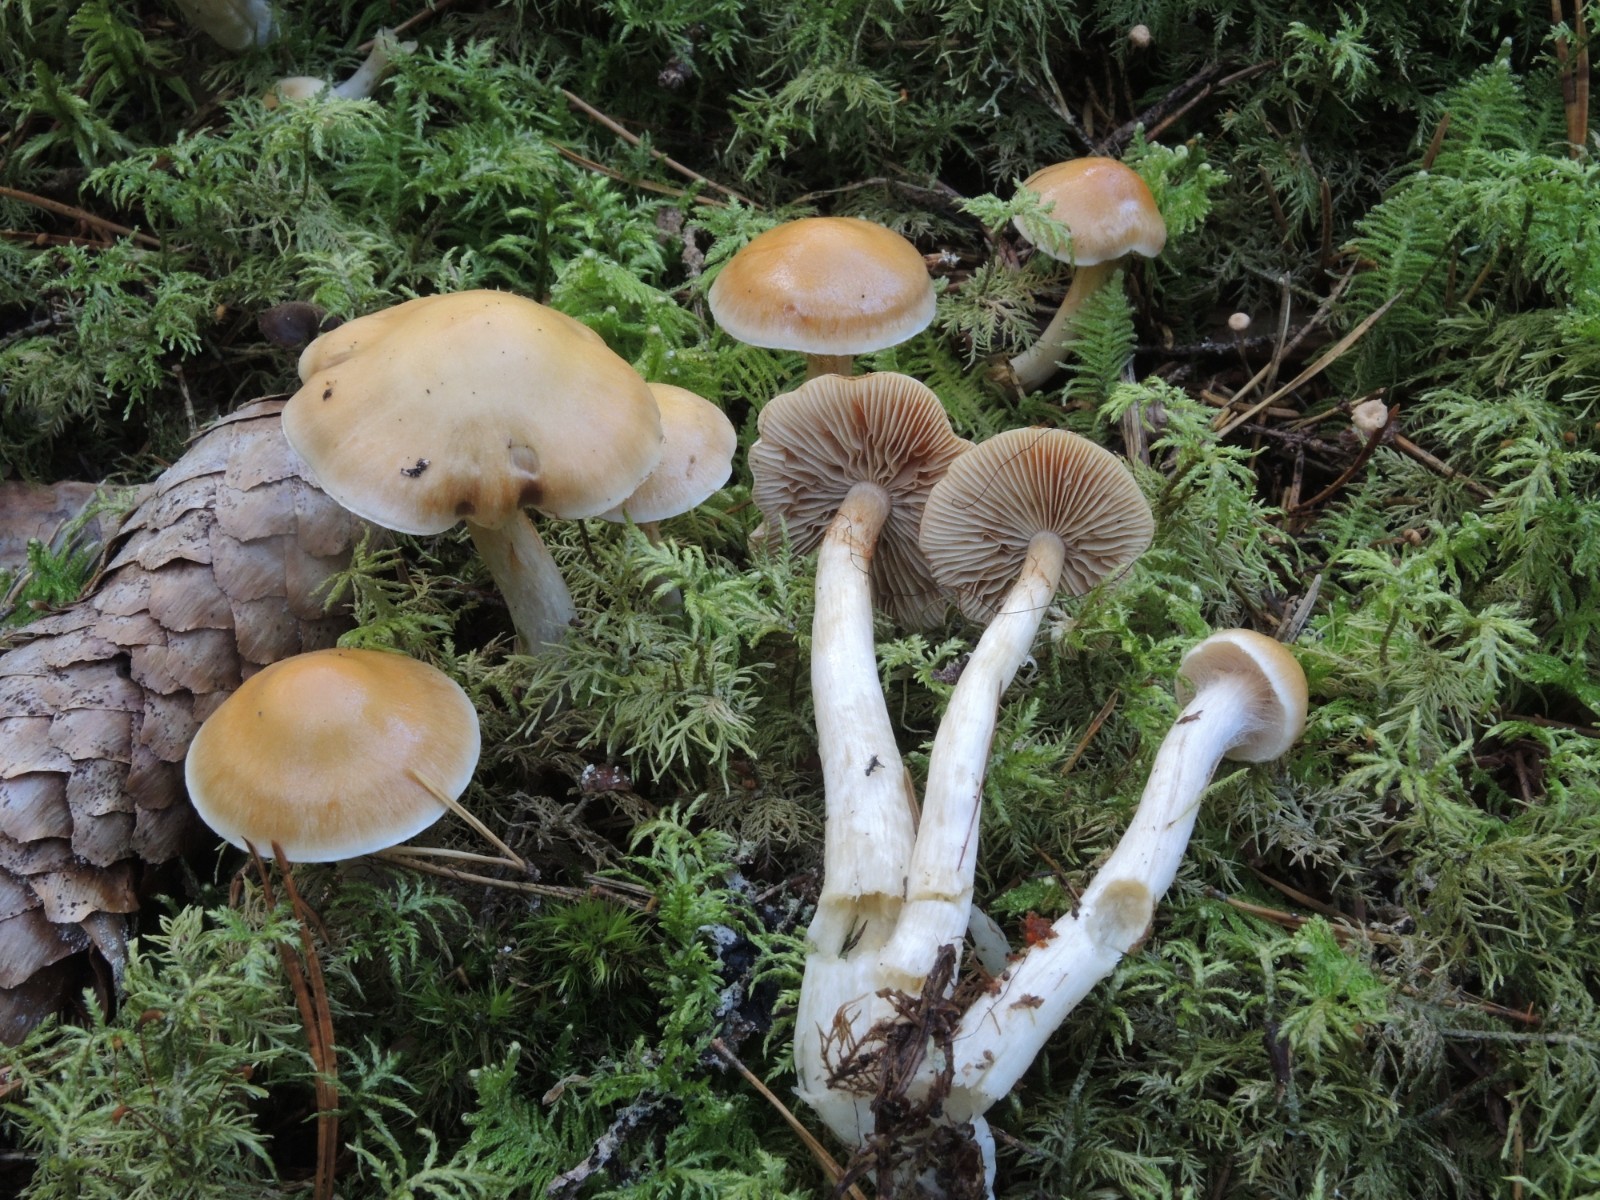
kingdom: Fungi
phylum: Basidiomycota
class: Agaricomycetes
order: Agaricales
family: Cortinariaceae
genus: Cortinarius
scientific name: Cortinarius
